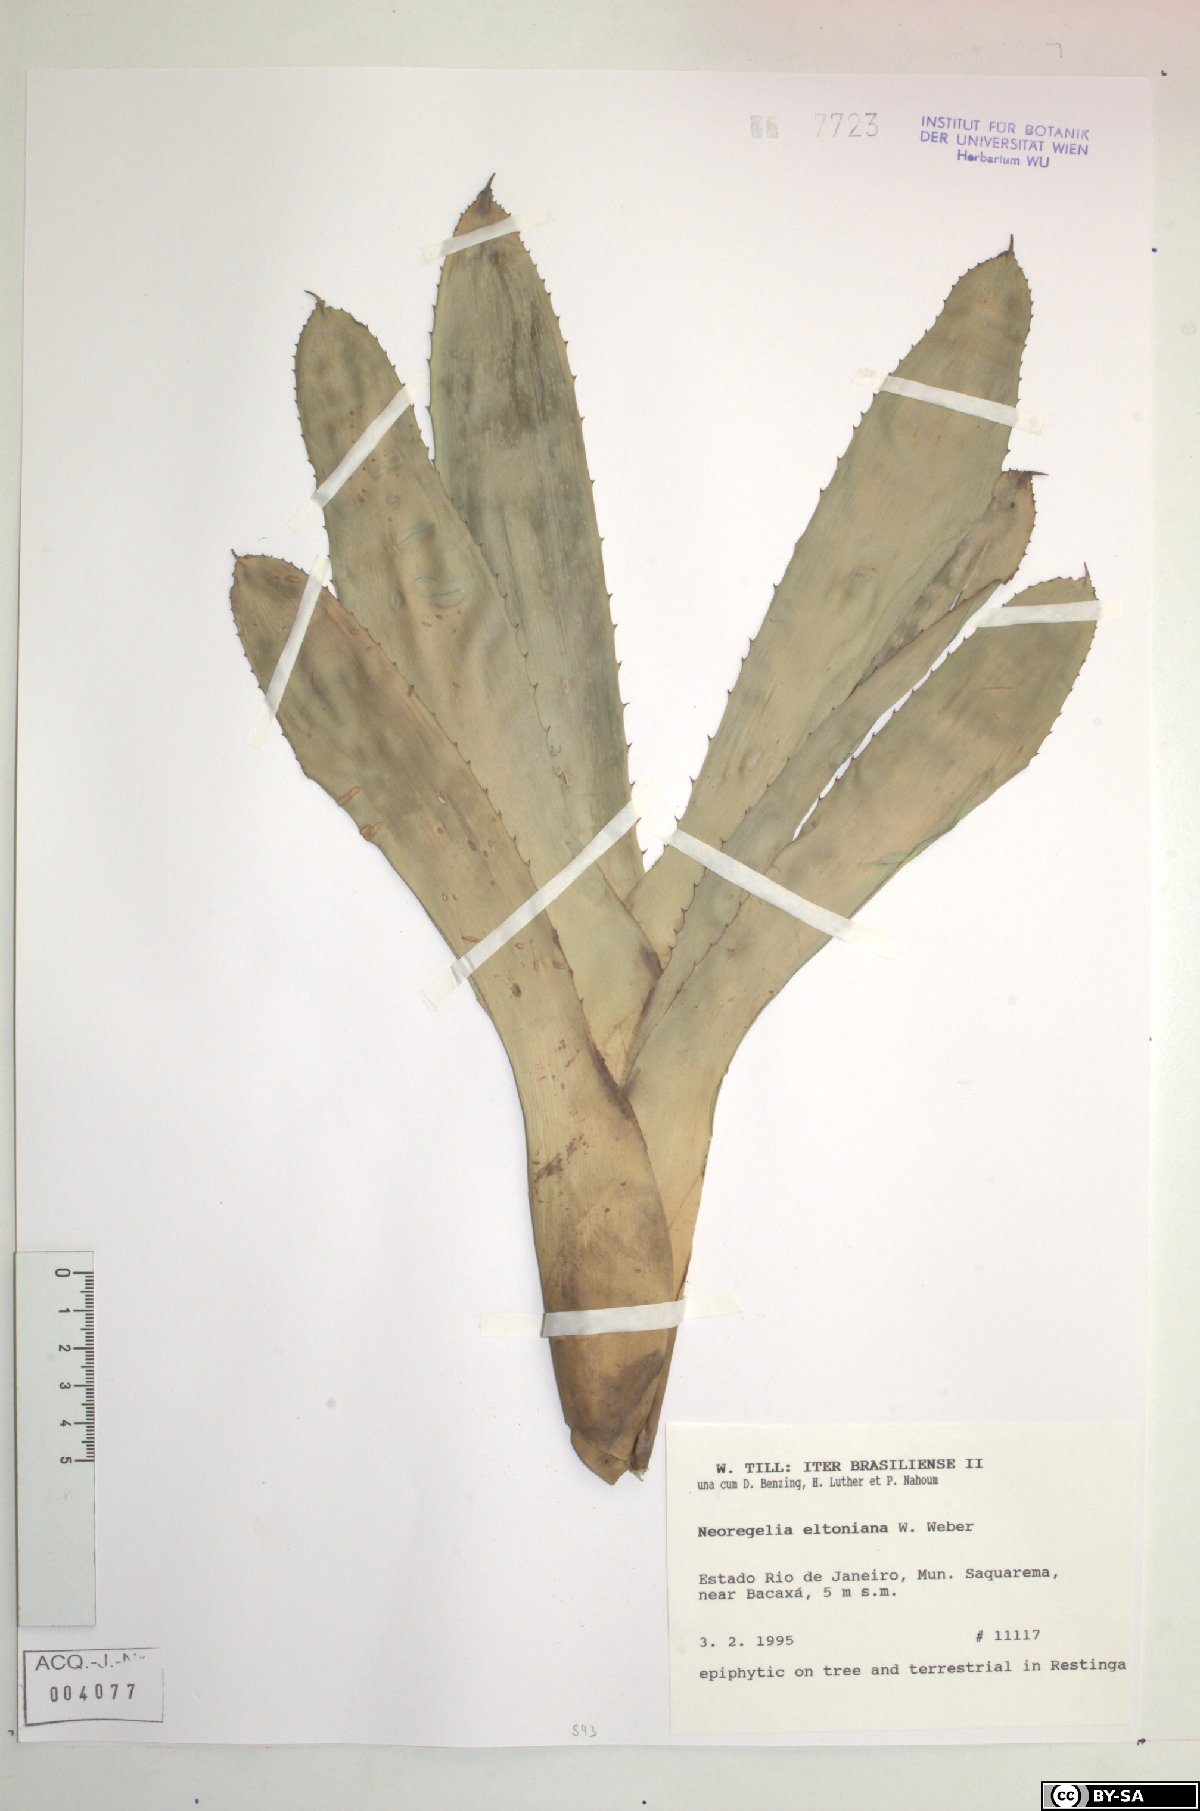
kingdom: Plantae
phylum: Tracheophyta
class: Liliopsida
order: Poales
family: Bromeliaceae
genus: Neoregelia
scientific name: Neoregelia eltoniana
